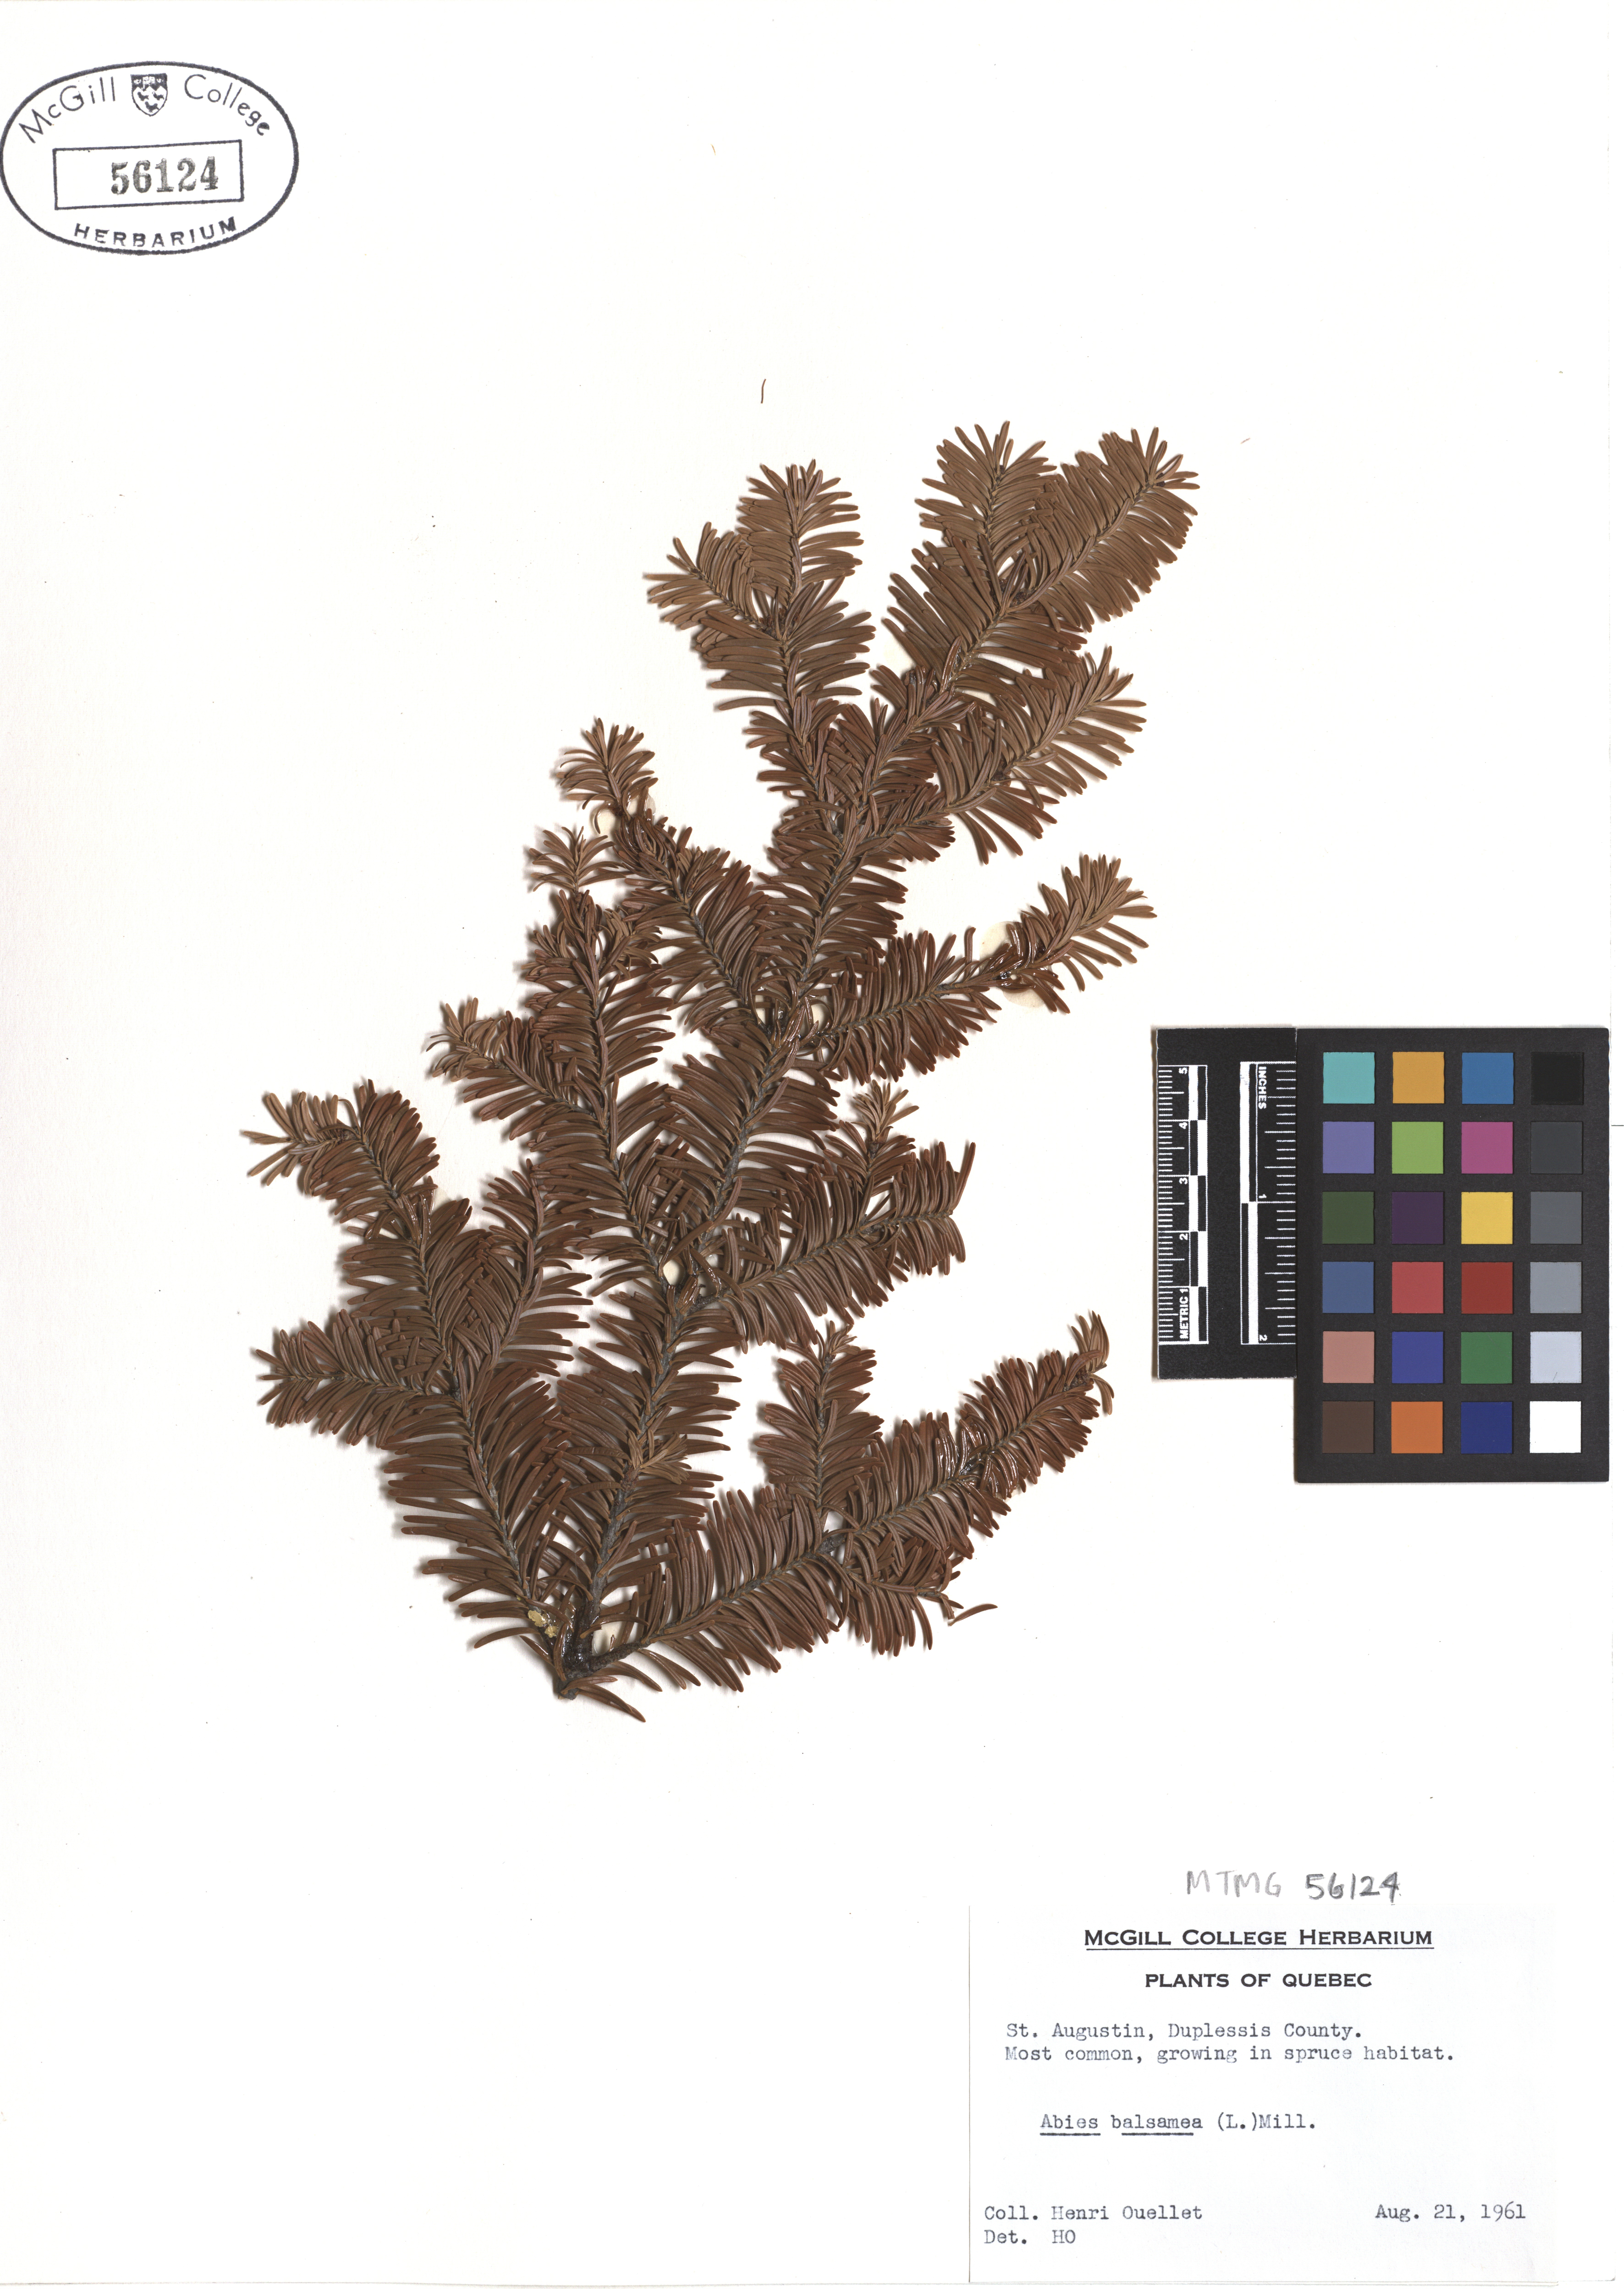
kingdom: Plantae
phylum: Tracheophyta
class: Pinopsida
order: Pinales
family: Pinaceae
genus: Abies
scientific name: Abies balsamea
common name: Balsam fir
